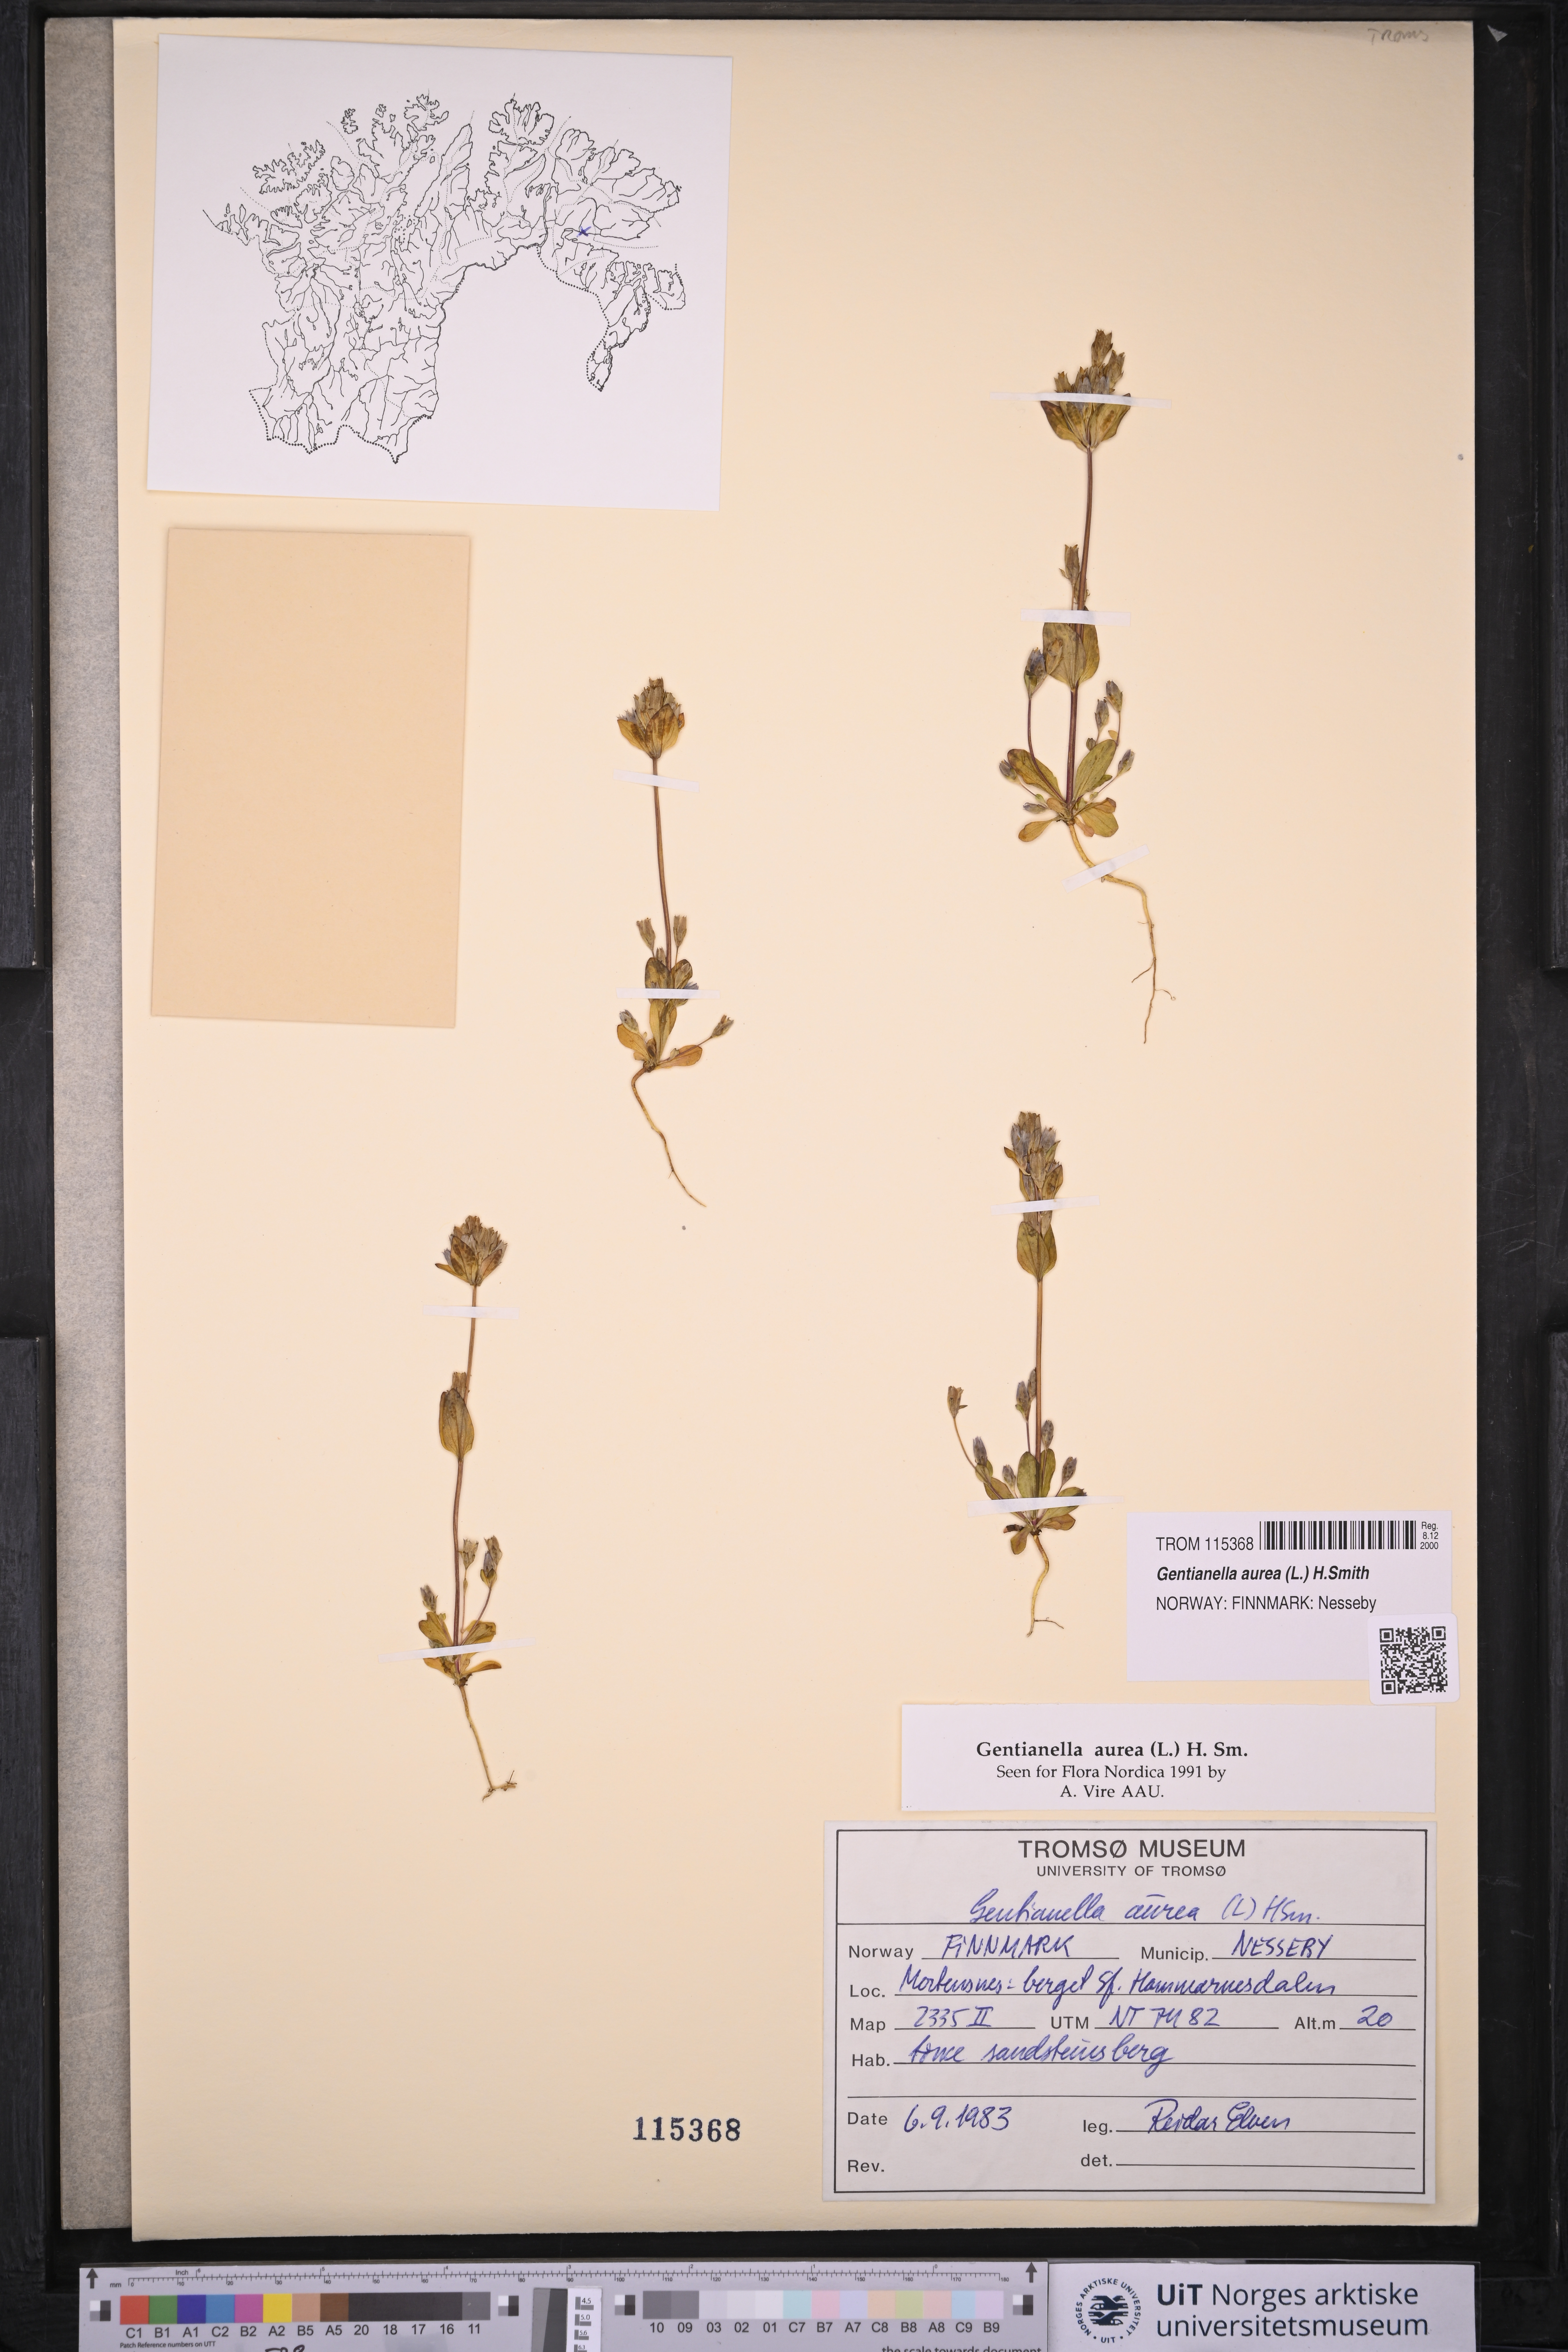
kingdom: Plantae
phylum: Tracheophyta
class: Magnoliopsida
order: Gentianales
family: Gentianaceae
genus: Gentianella
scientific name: Gentianella aurea
